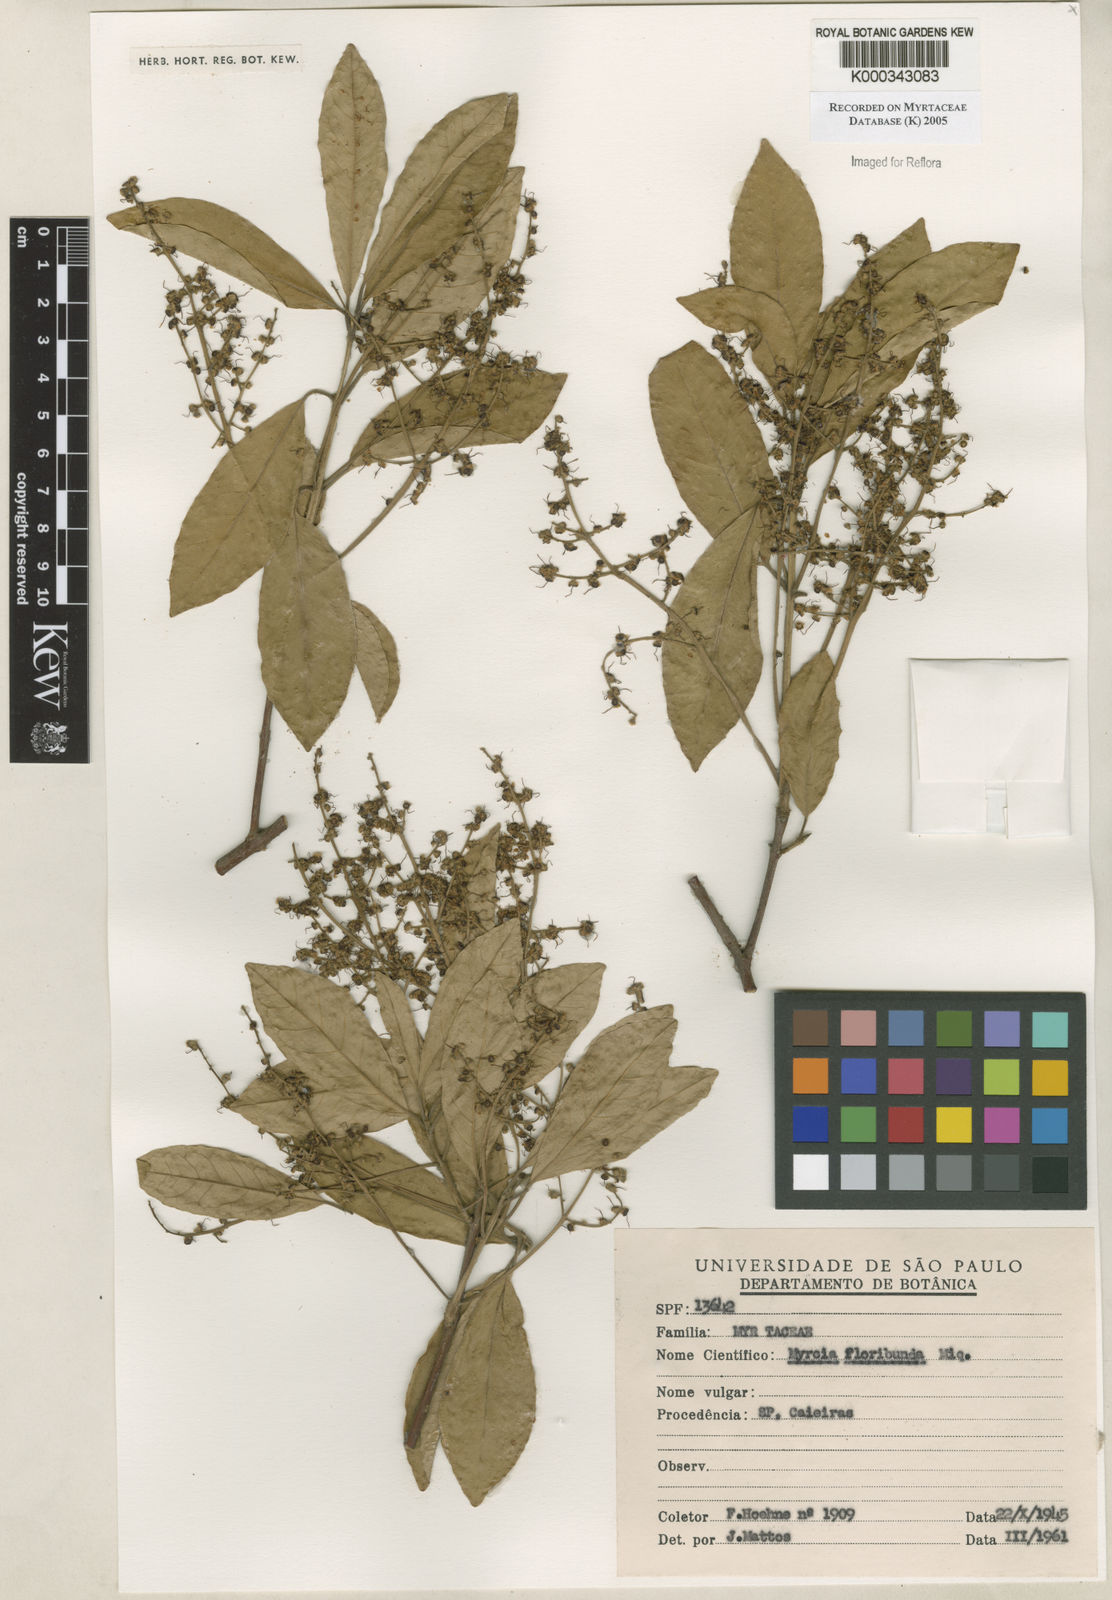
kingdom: Plantae
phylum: Tracheophyta
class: Magnoliopsida
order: Myrtales
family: Myrtaceae
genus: Myrcia
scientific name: Myrcia tomentosa
